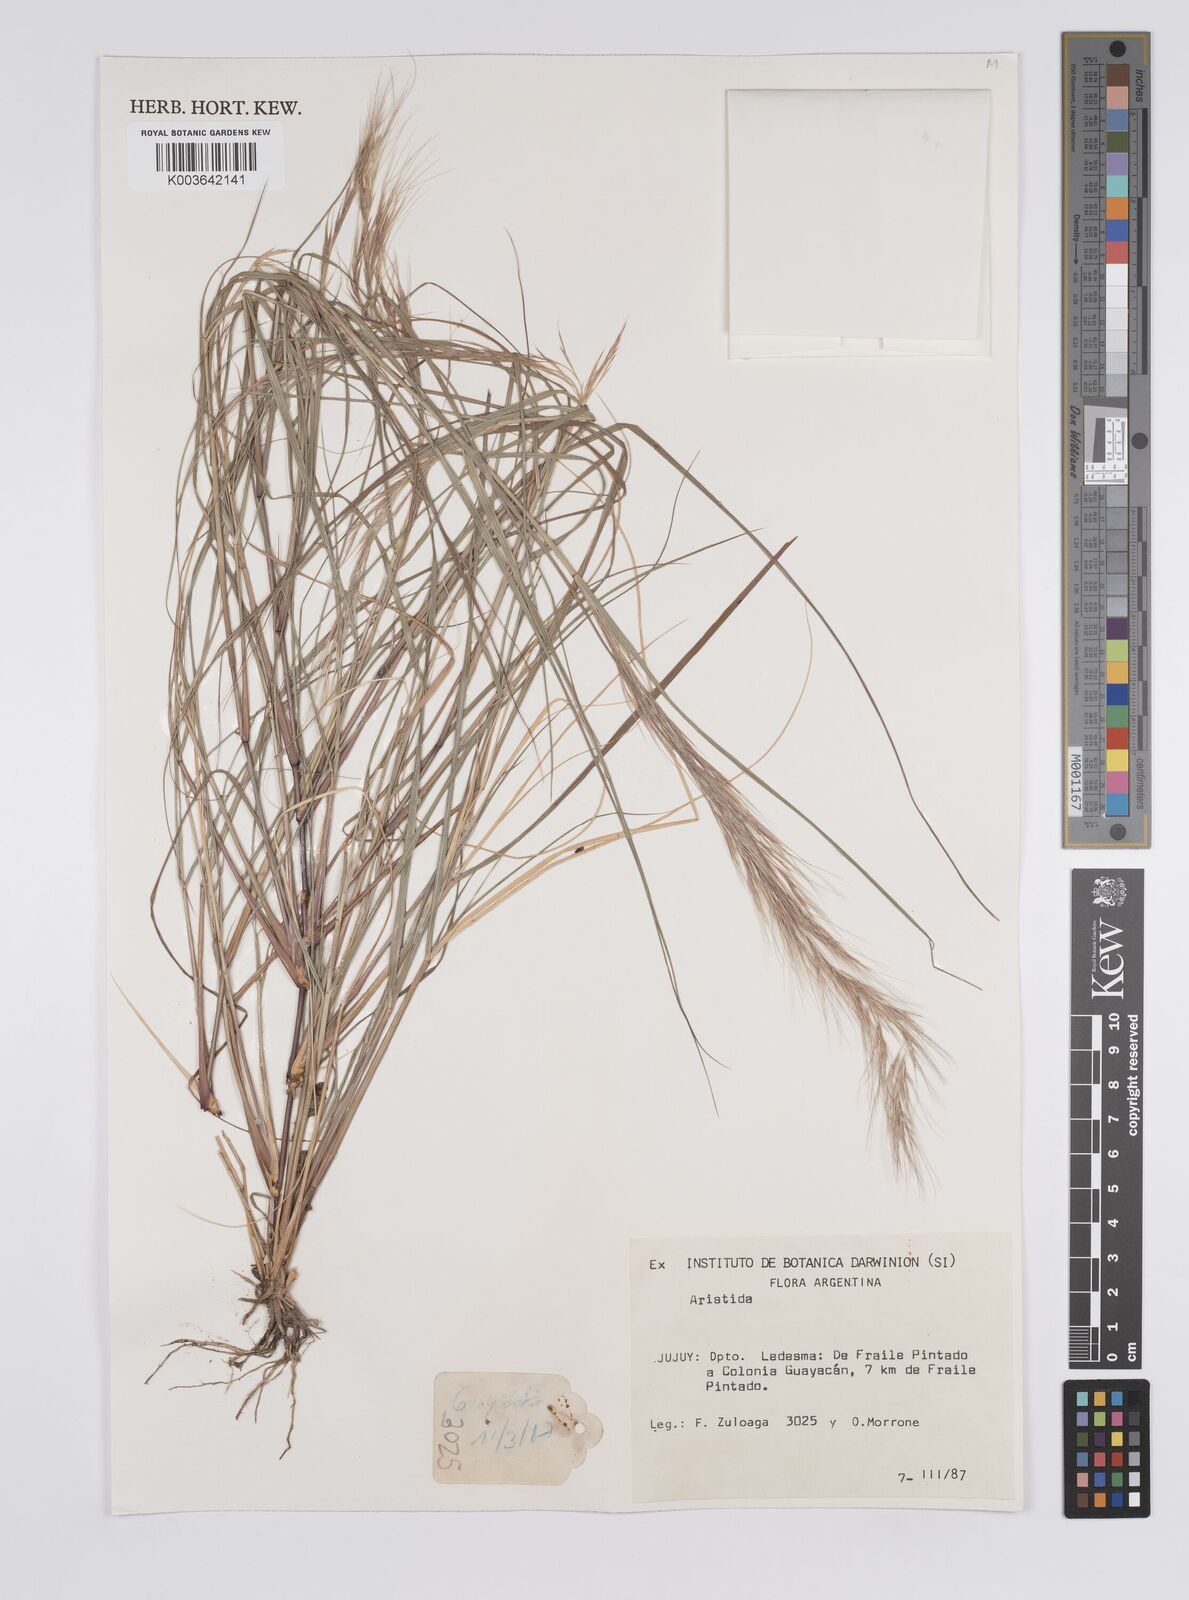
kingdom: Plantae
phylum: Tracheophyta
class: Liliopsida
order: Poales
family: Poaceae
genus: Aristida
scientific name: Aristida
